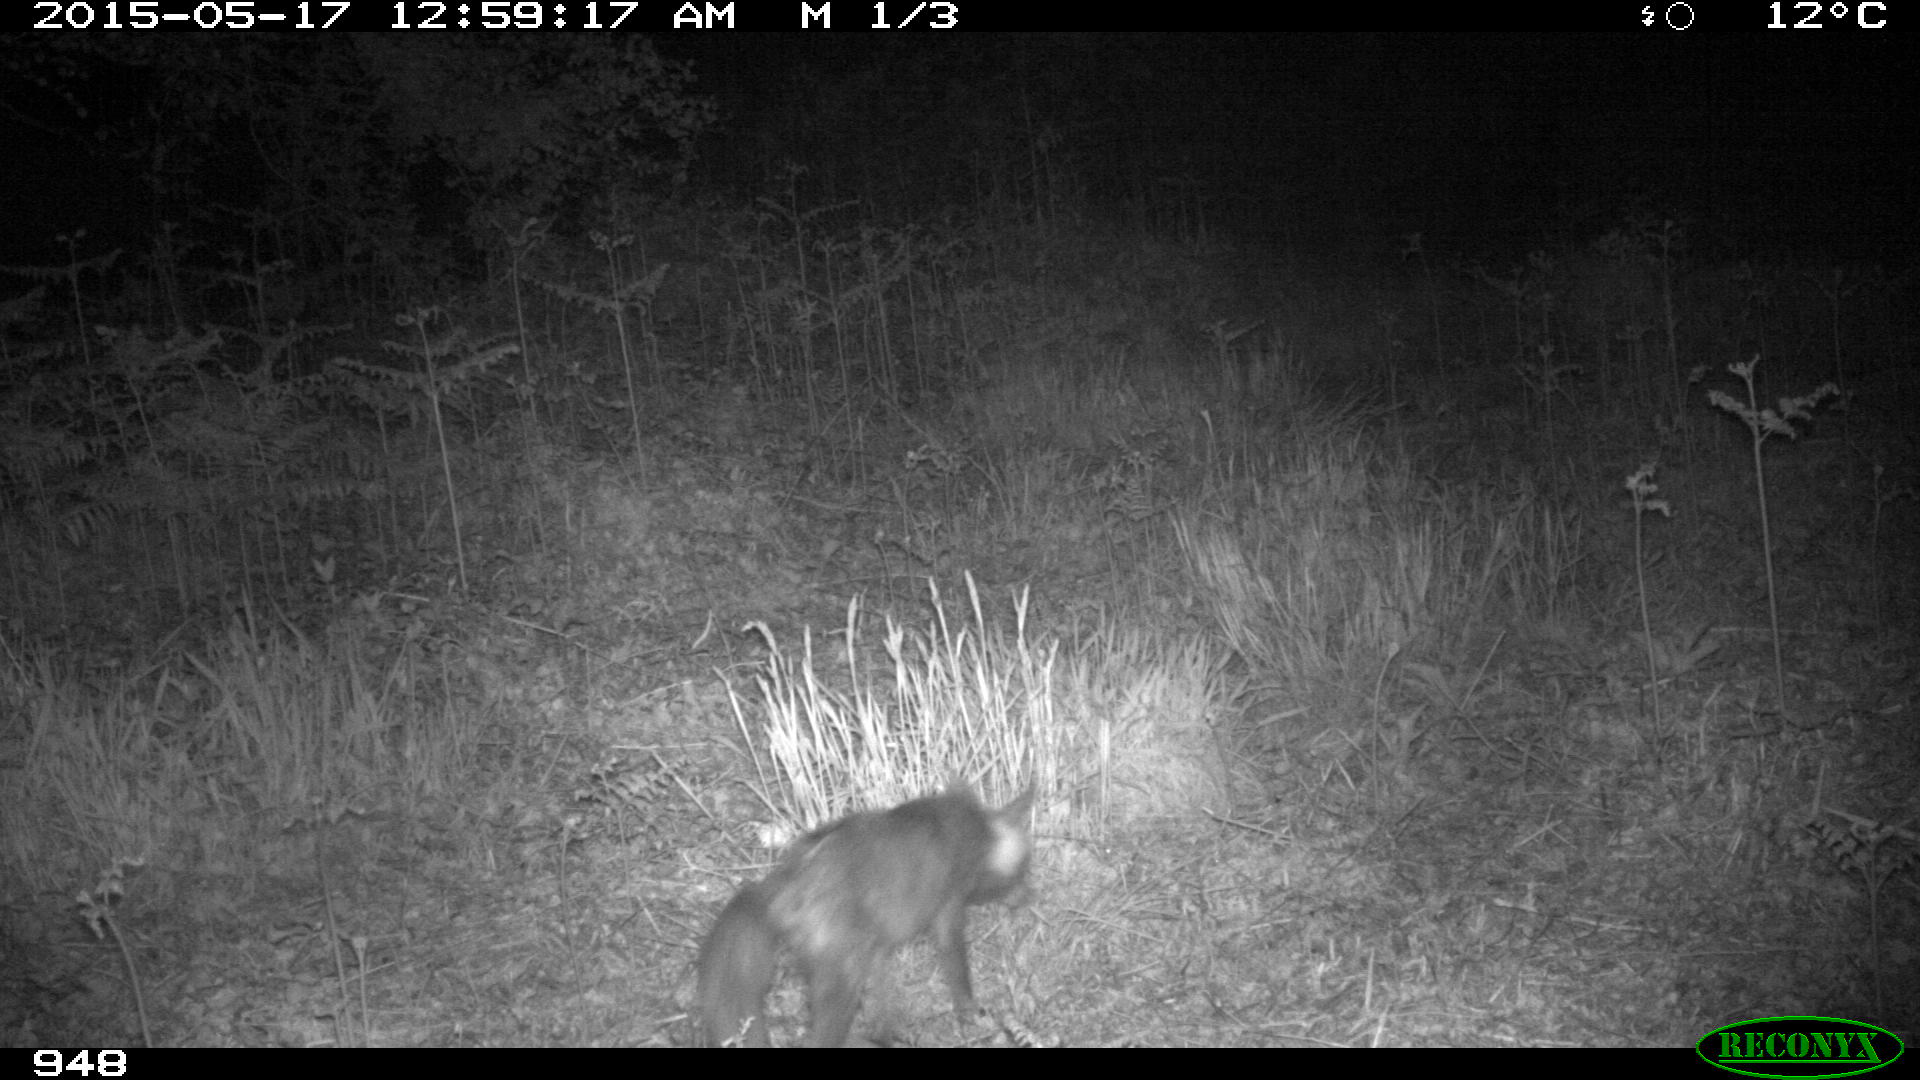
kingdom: Animalia
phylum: Chordata
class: Mammalia
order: Carnivora
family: Canidae
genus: Vulpes
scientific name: Vulpes vulpes
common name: Red fox
